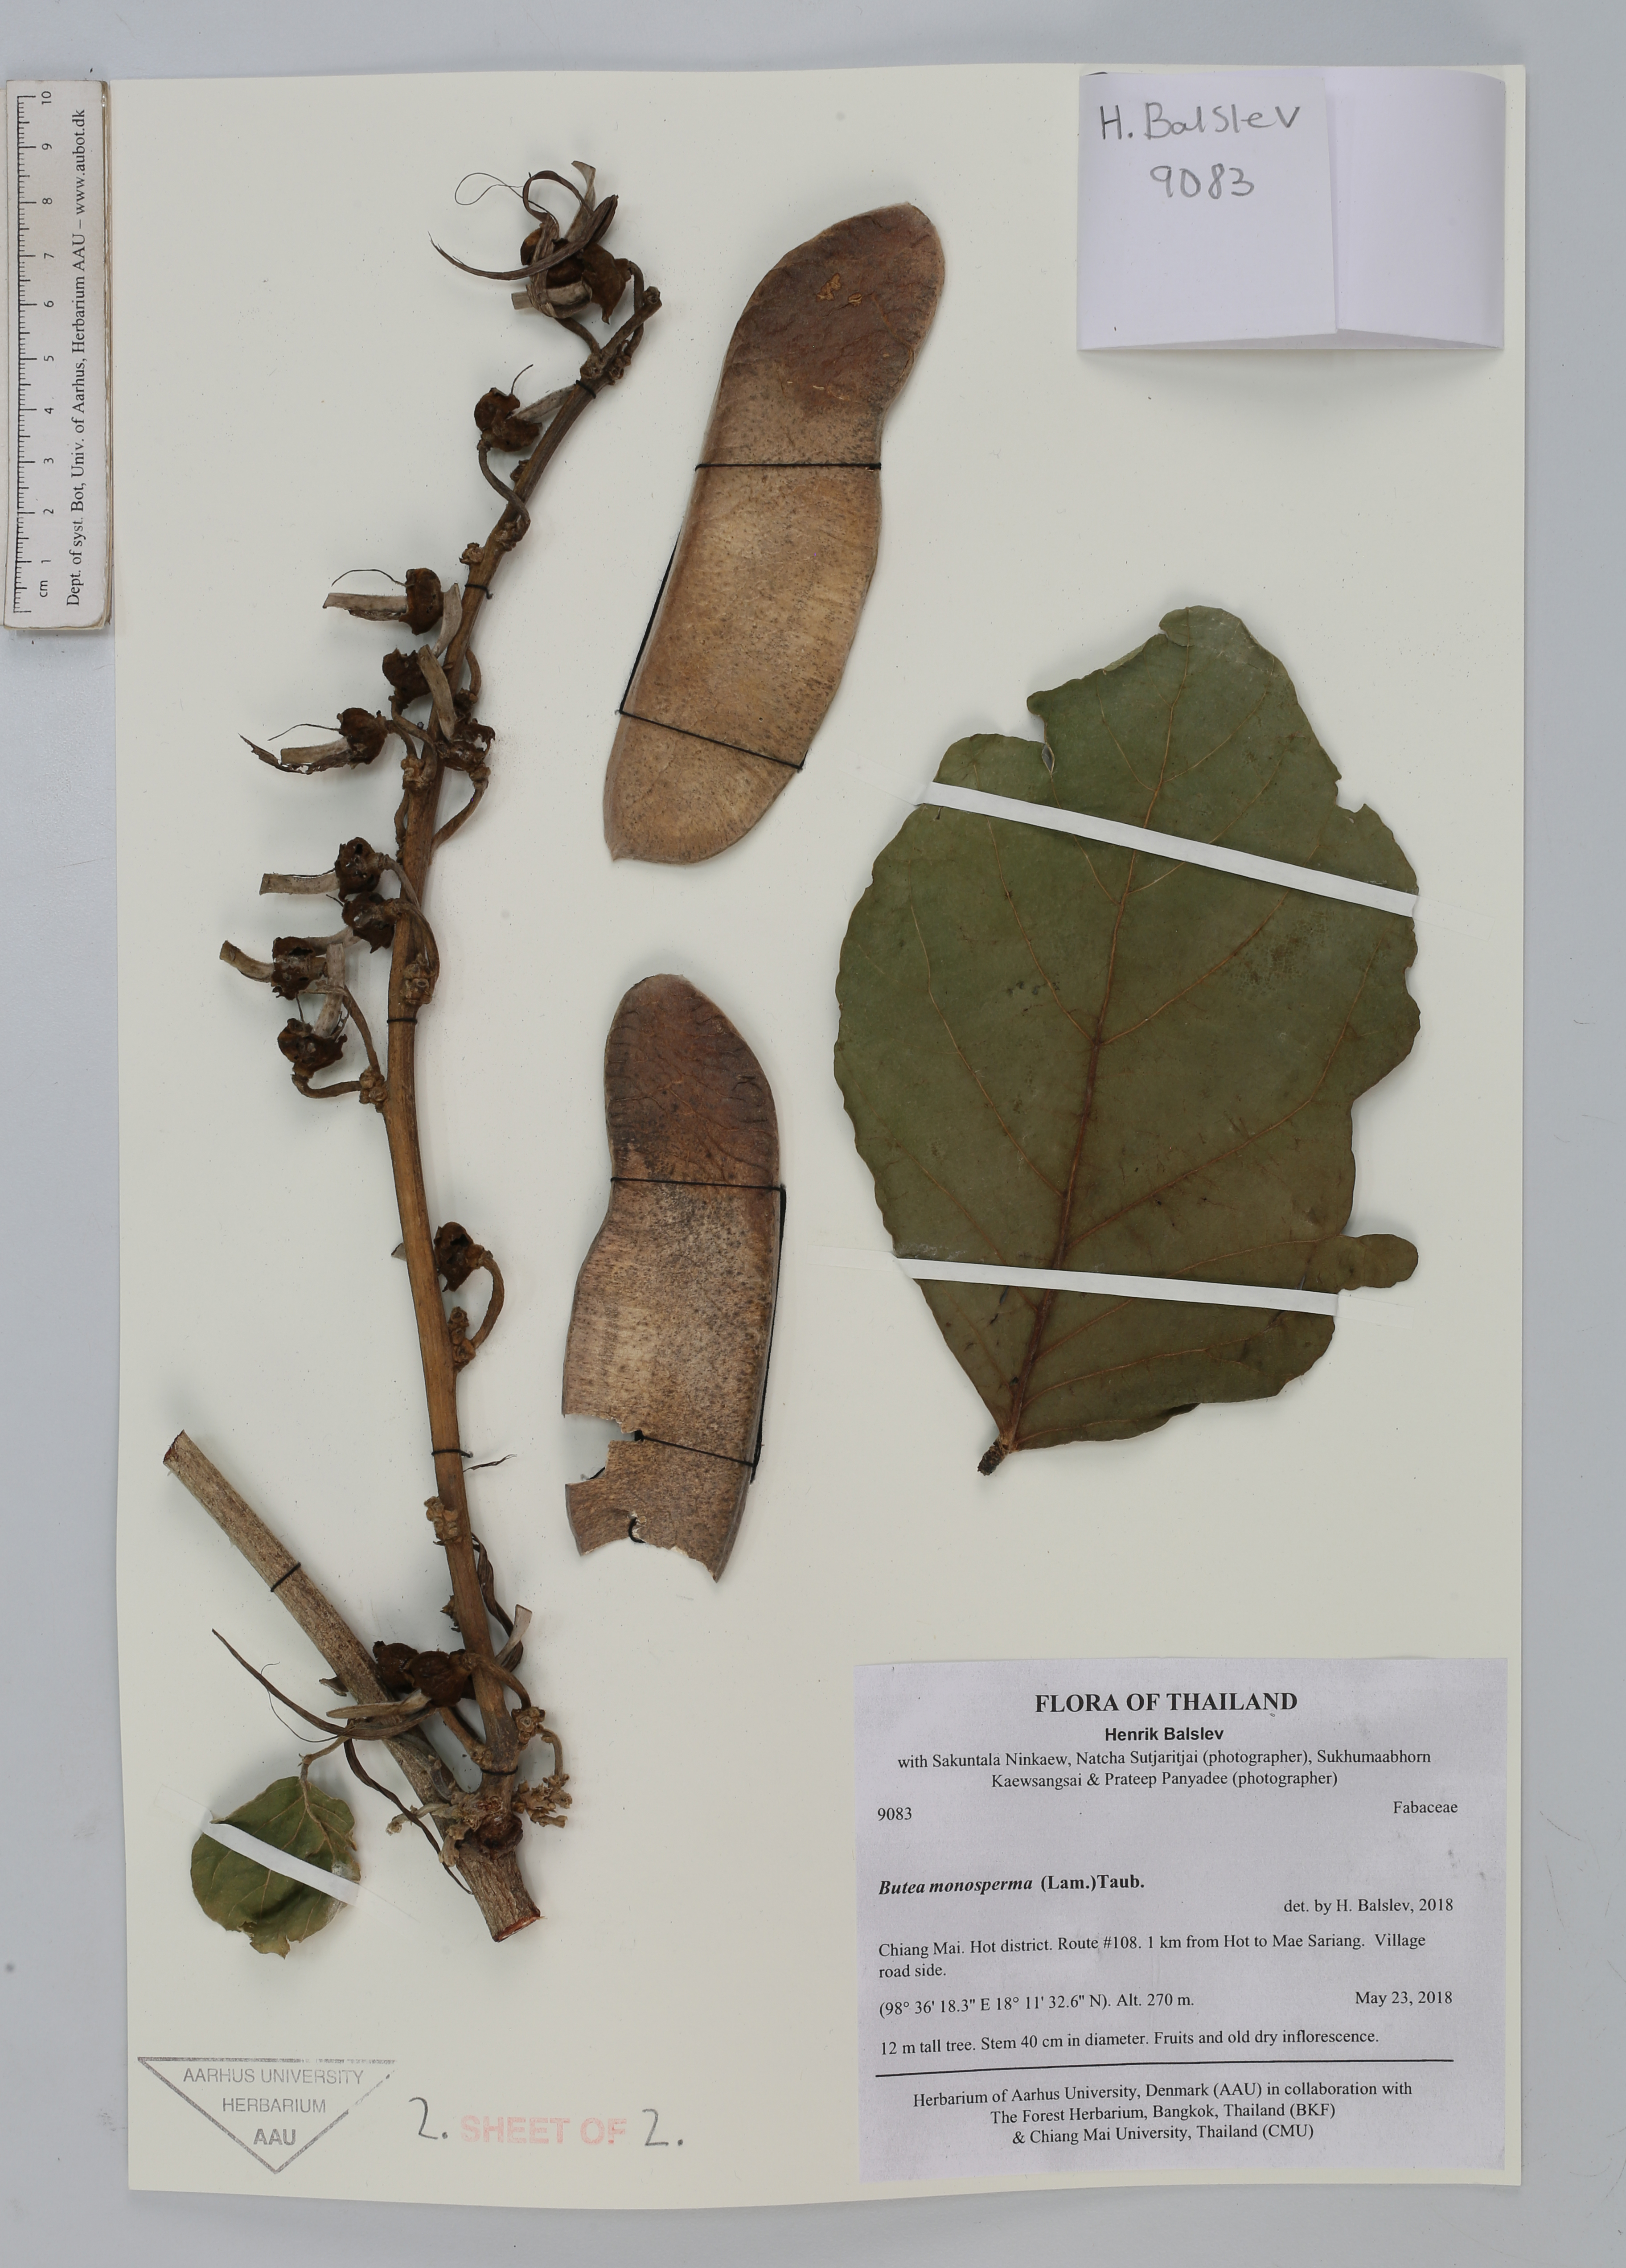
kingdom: Plantae
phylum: Tracheophyta
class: Magnoliopsida
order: Fabales
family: Fabaceae
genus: Butea
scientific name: Butea monosperma
